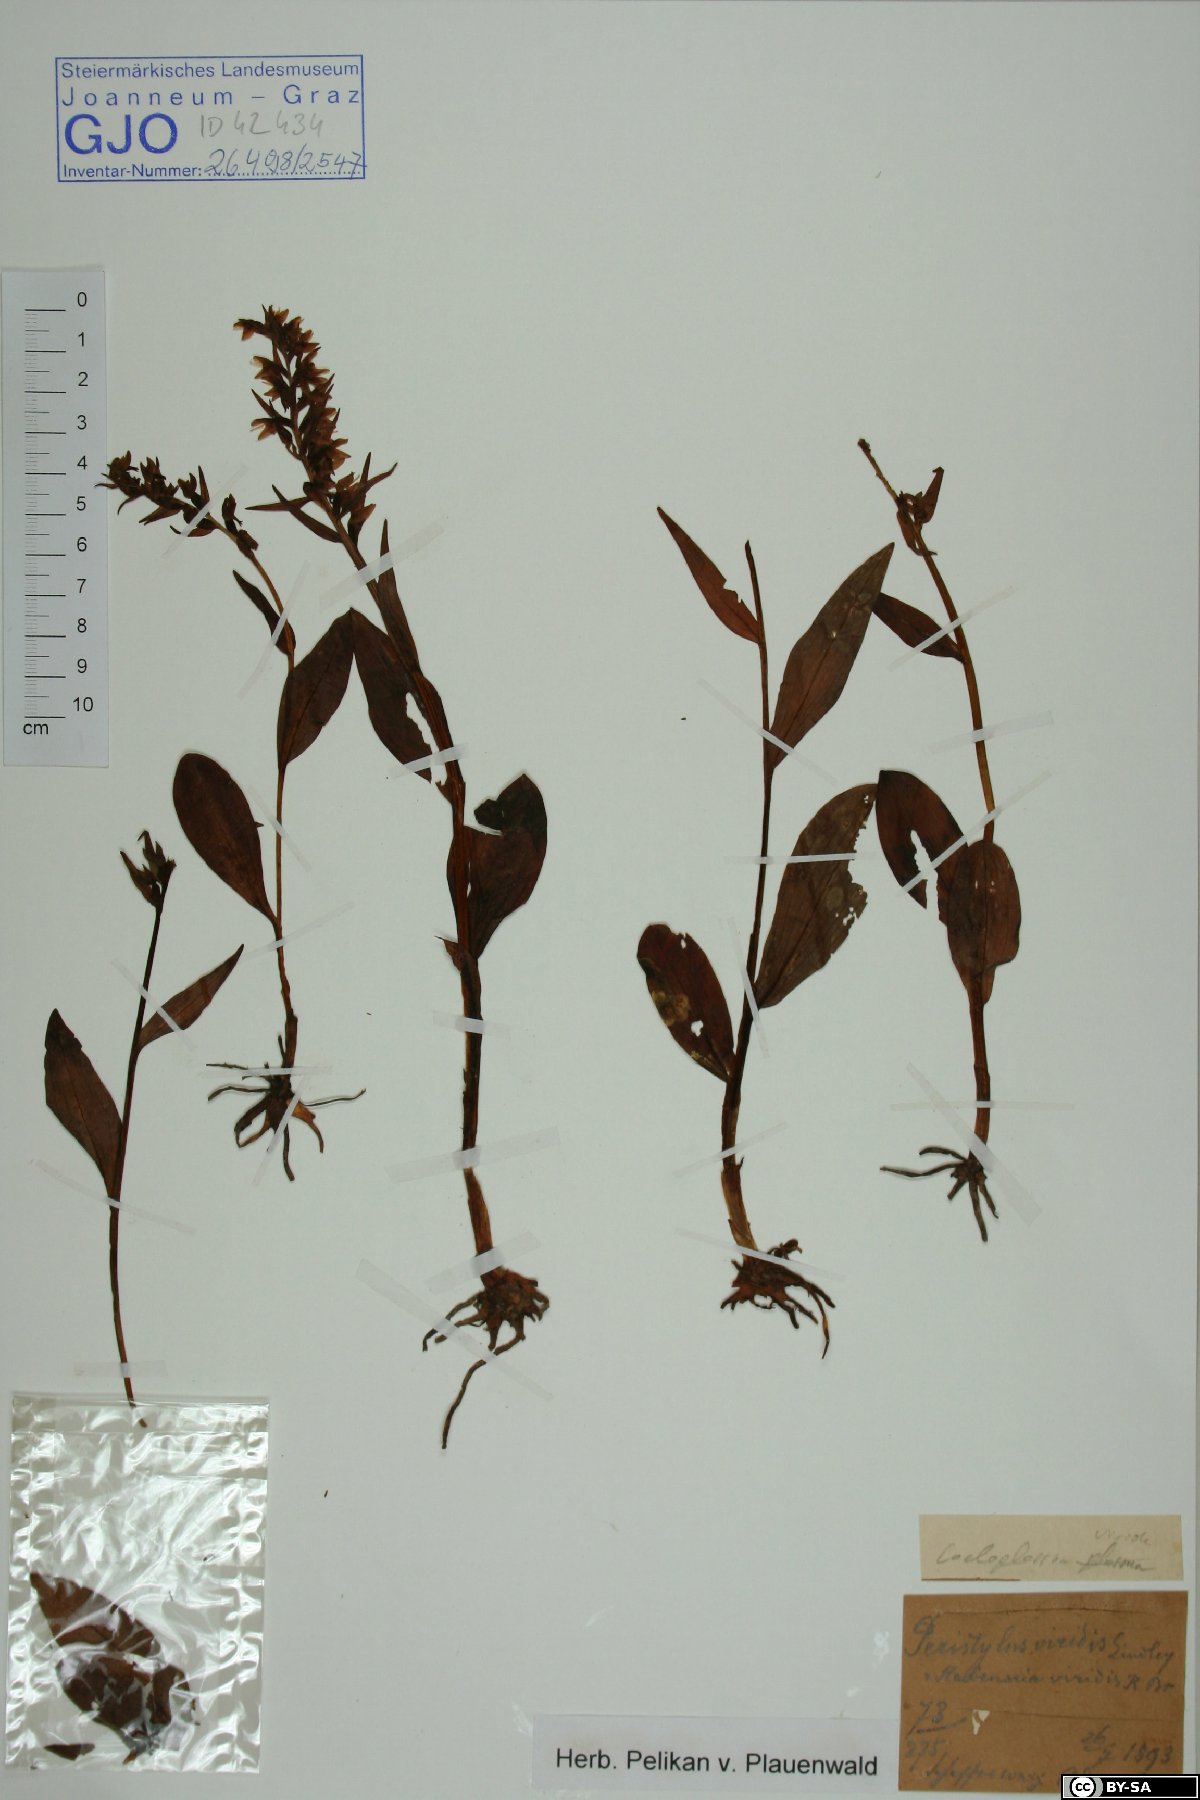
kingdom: Plantae
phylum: Tracheophyta
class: Liliopsida
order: Asparagales
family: Orchidaceae
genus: Dactylorhiza
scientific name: Dactylorhiza viridis
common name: Longbract frog orchid
